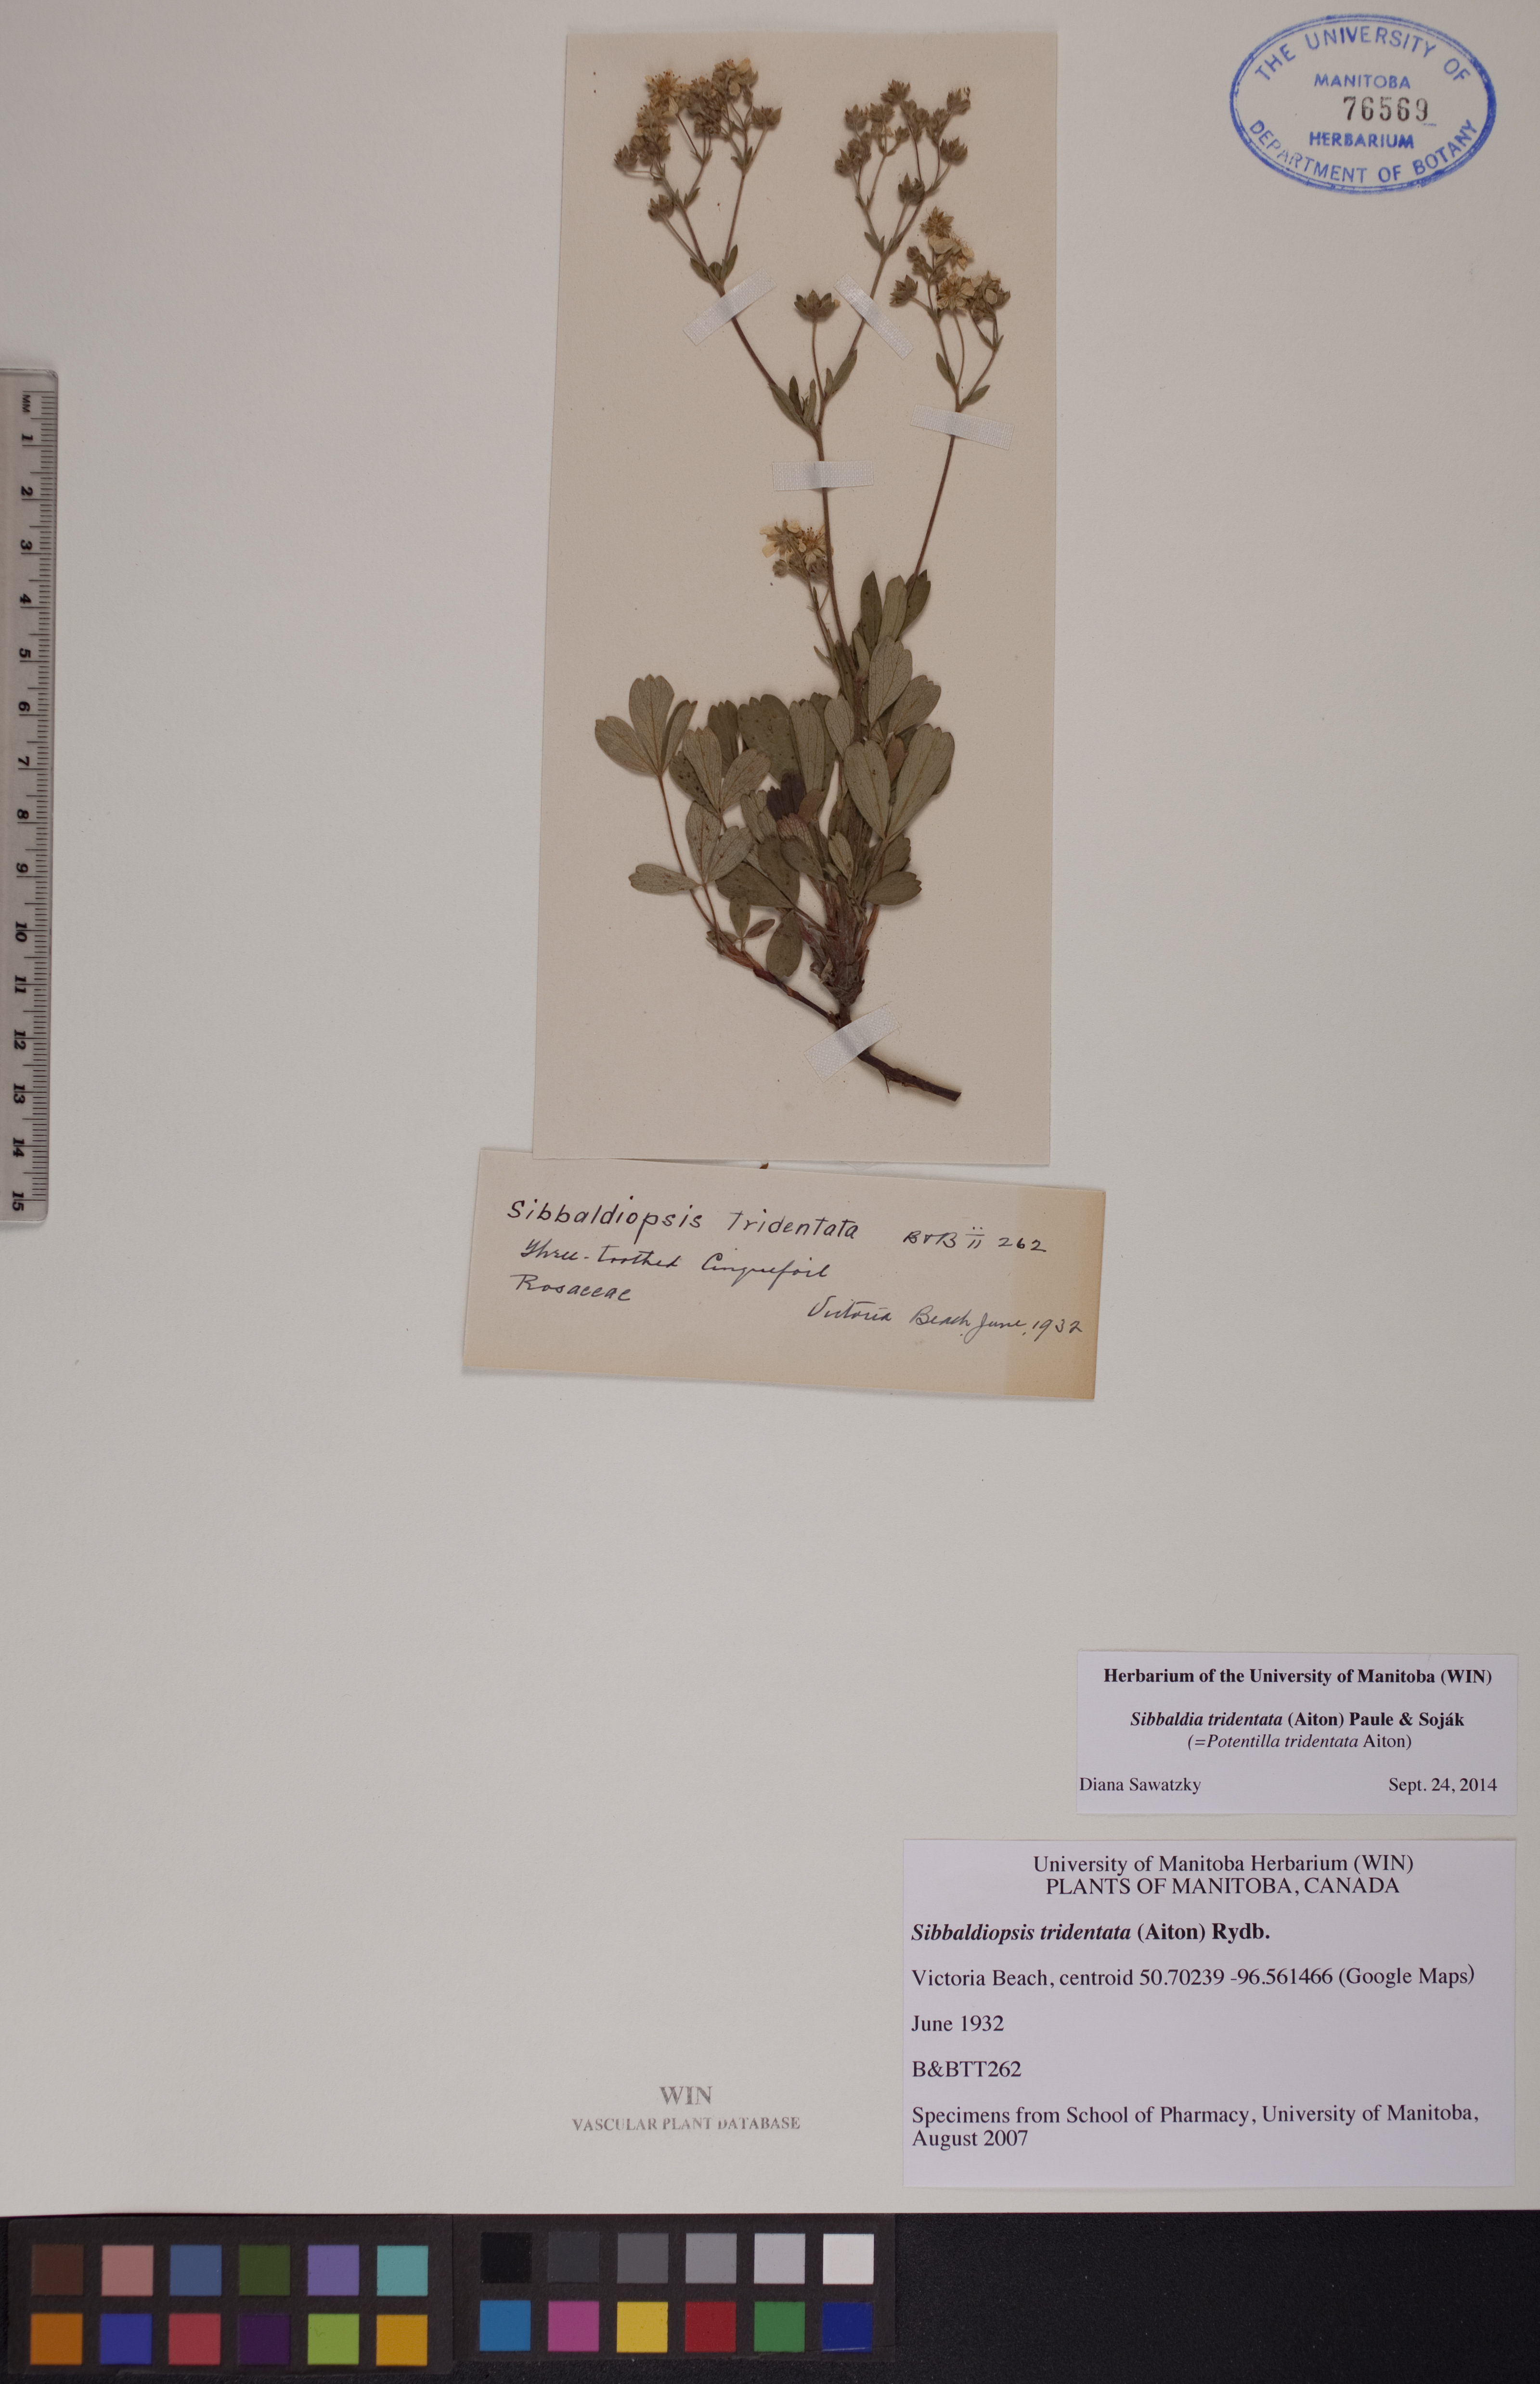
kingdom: Plantae
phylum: Tracheophyta
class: Magnoliopsida
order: Rosales
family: Rosaceae
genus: Sibbaldia
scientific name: Sibbaldia tridentata
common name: Three-toothed cinquefoil
